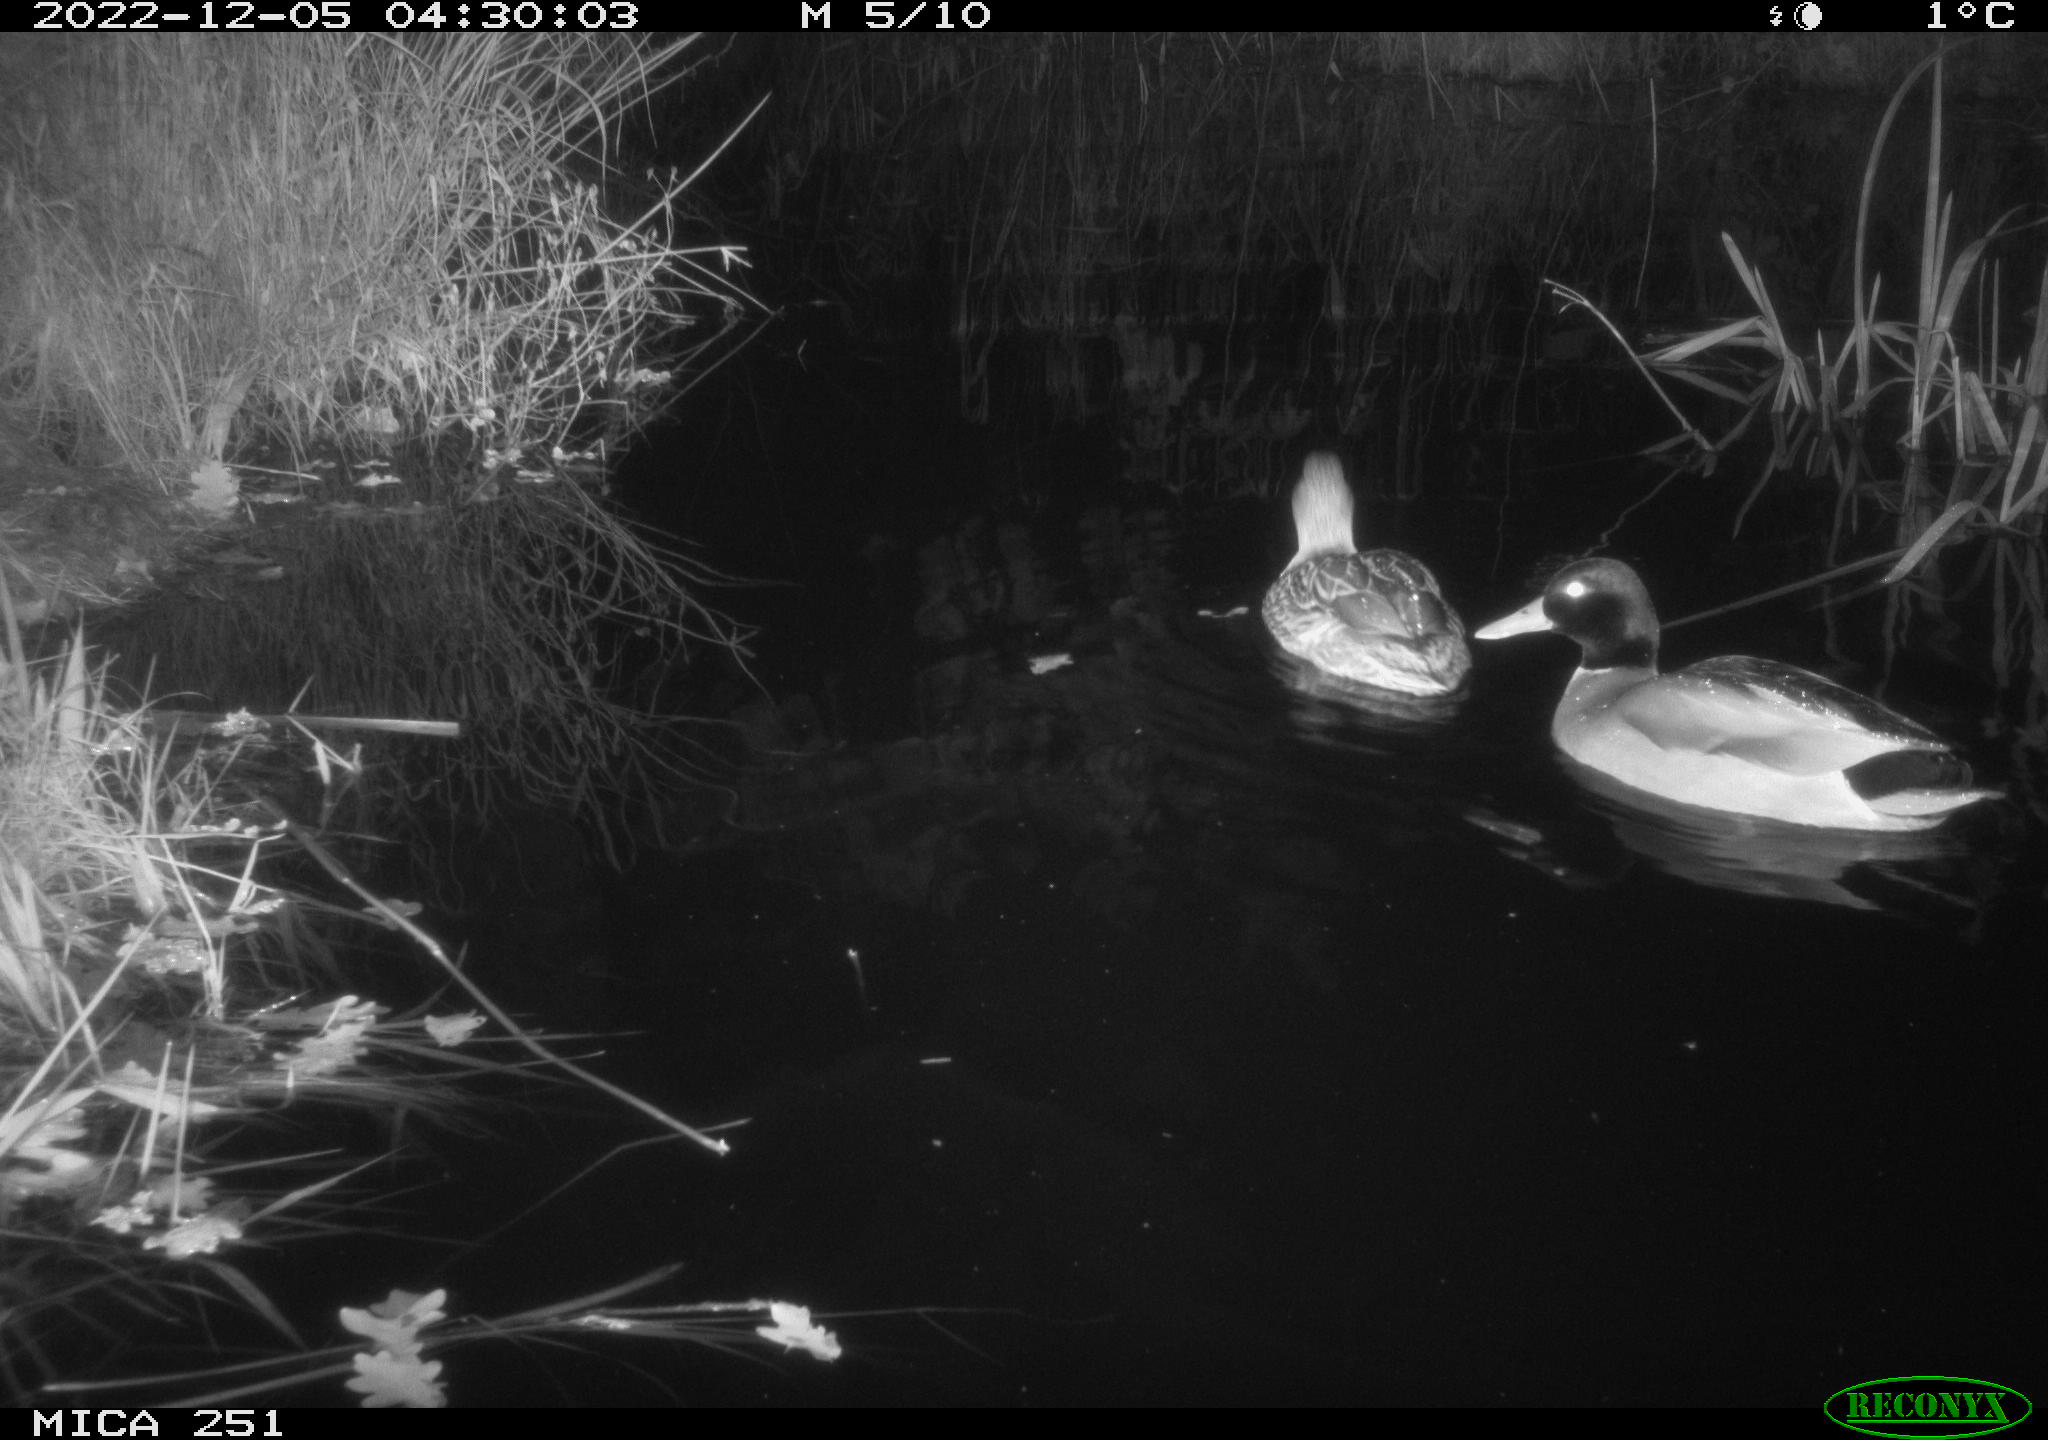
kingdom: Animalia
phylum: Chordata
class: Aves
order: Anseriformes
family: Anatidae
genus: Anas
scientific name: Anas
